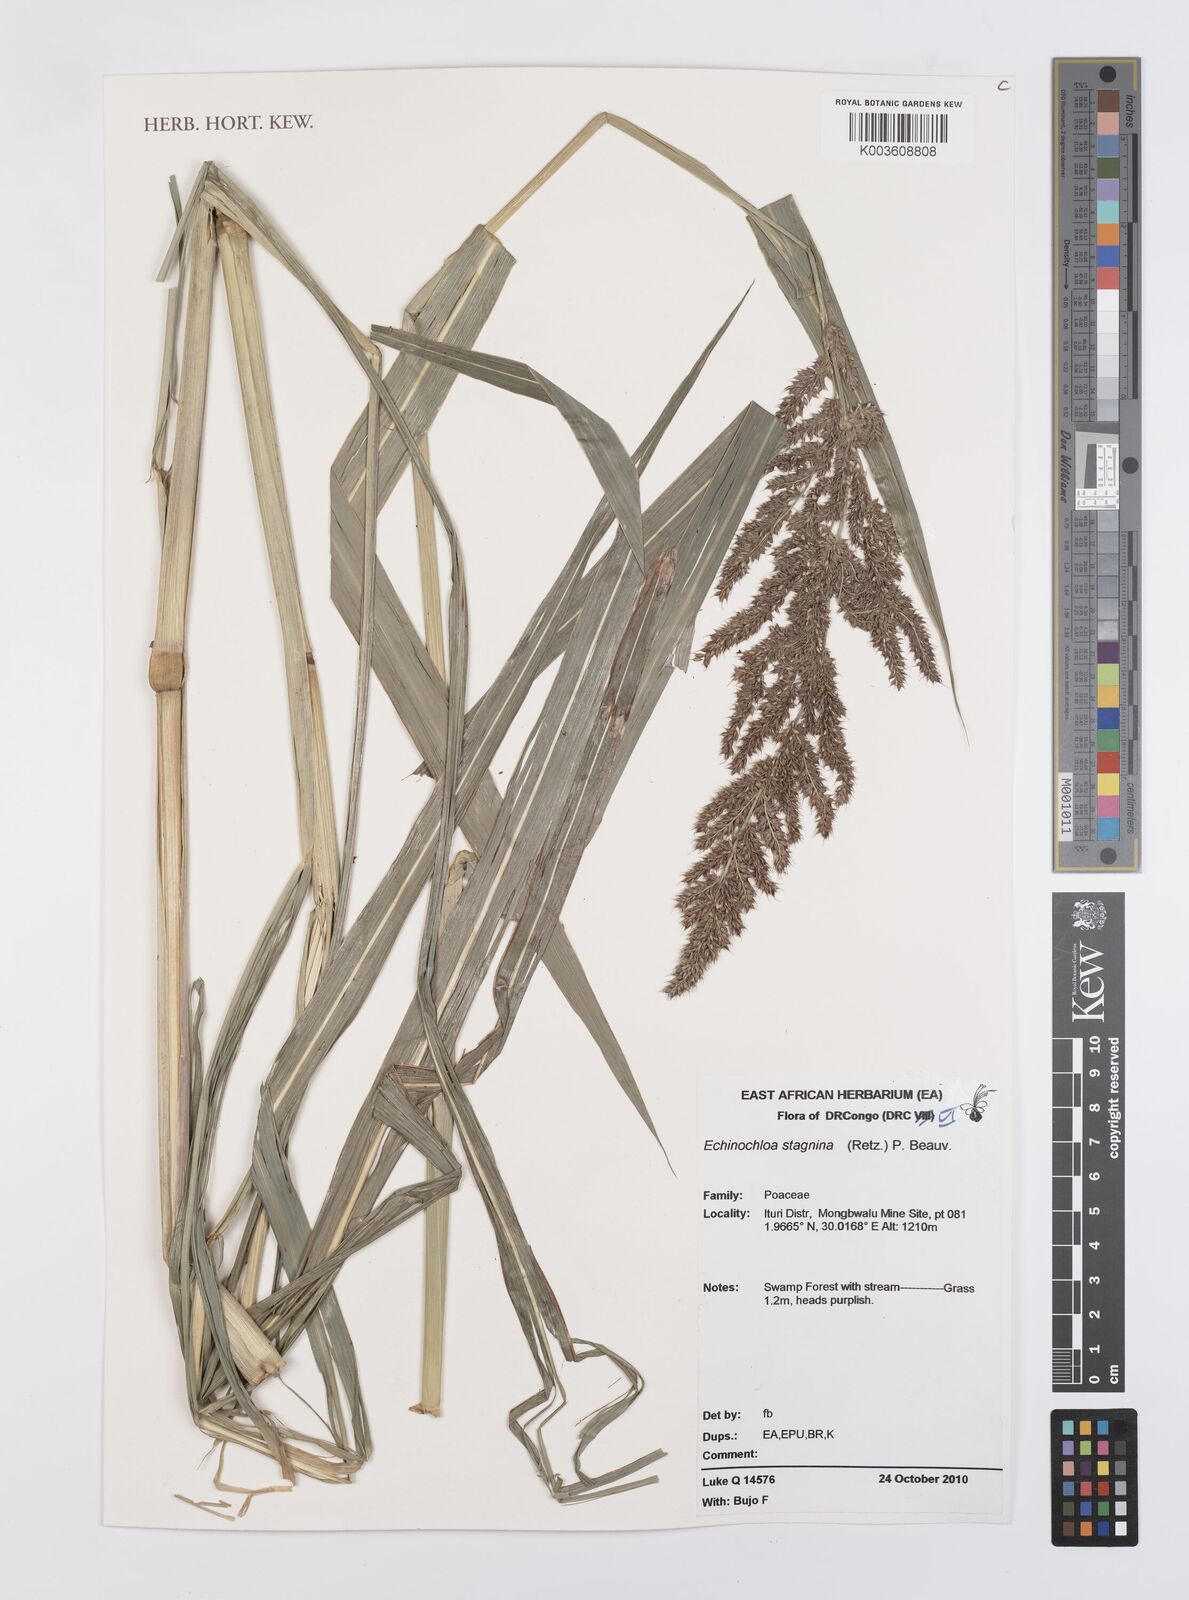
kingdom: Plantae
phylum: Tracheophyta
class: Liliopsida
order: Poales
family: Poaceae
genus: Echinochloa
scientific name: Echinochloa stagnina
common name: Burgu grass
